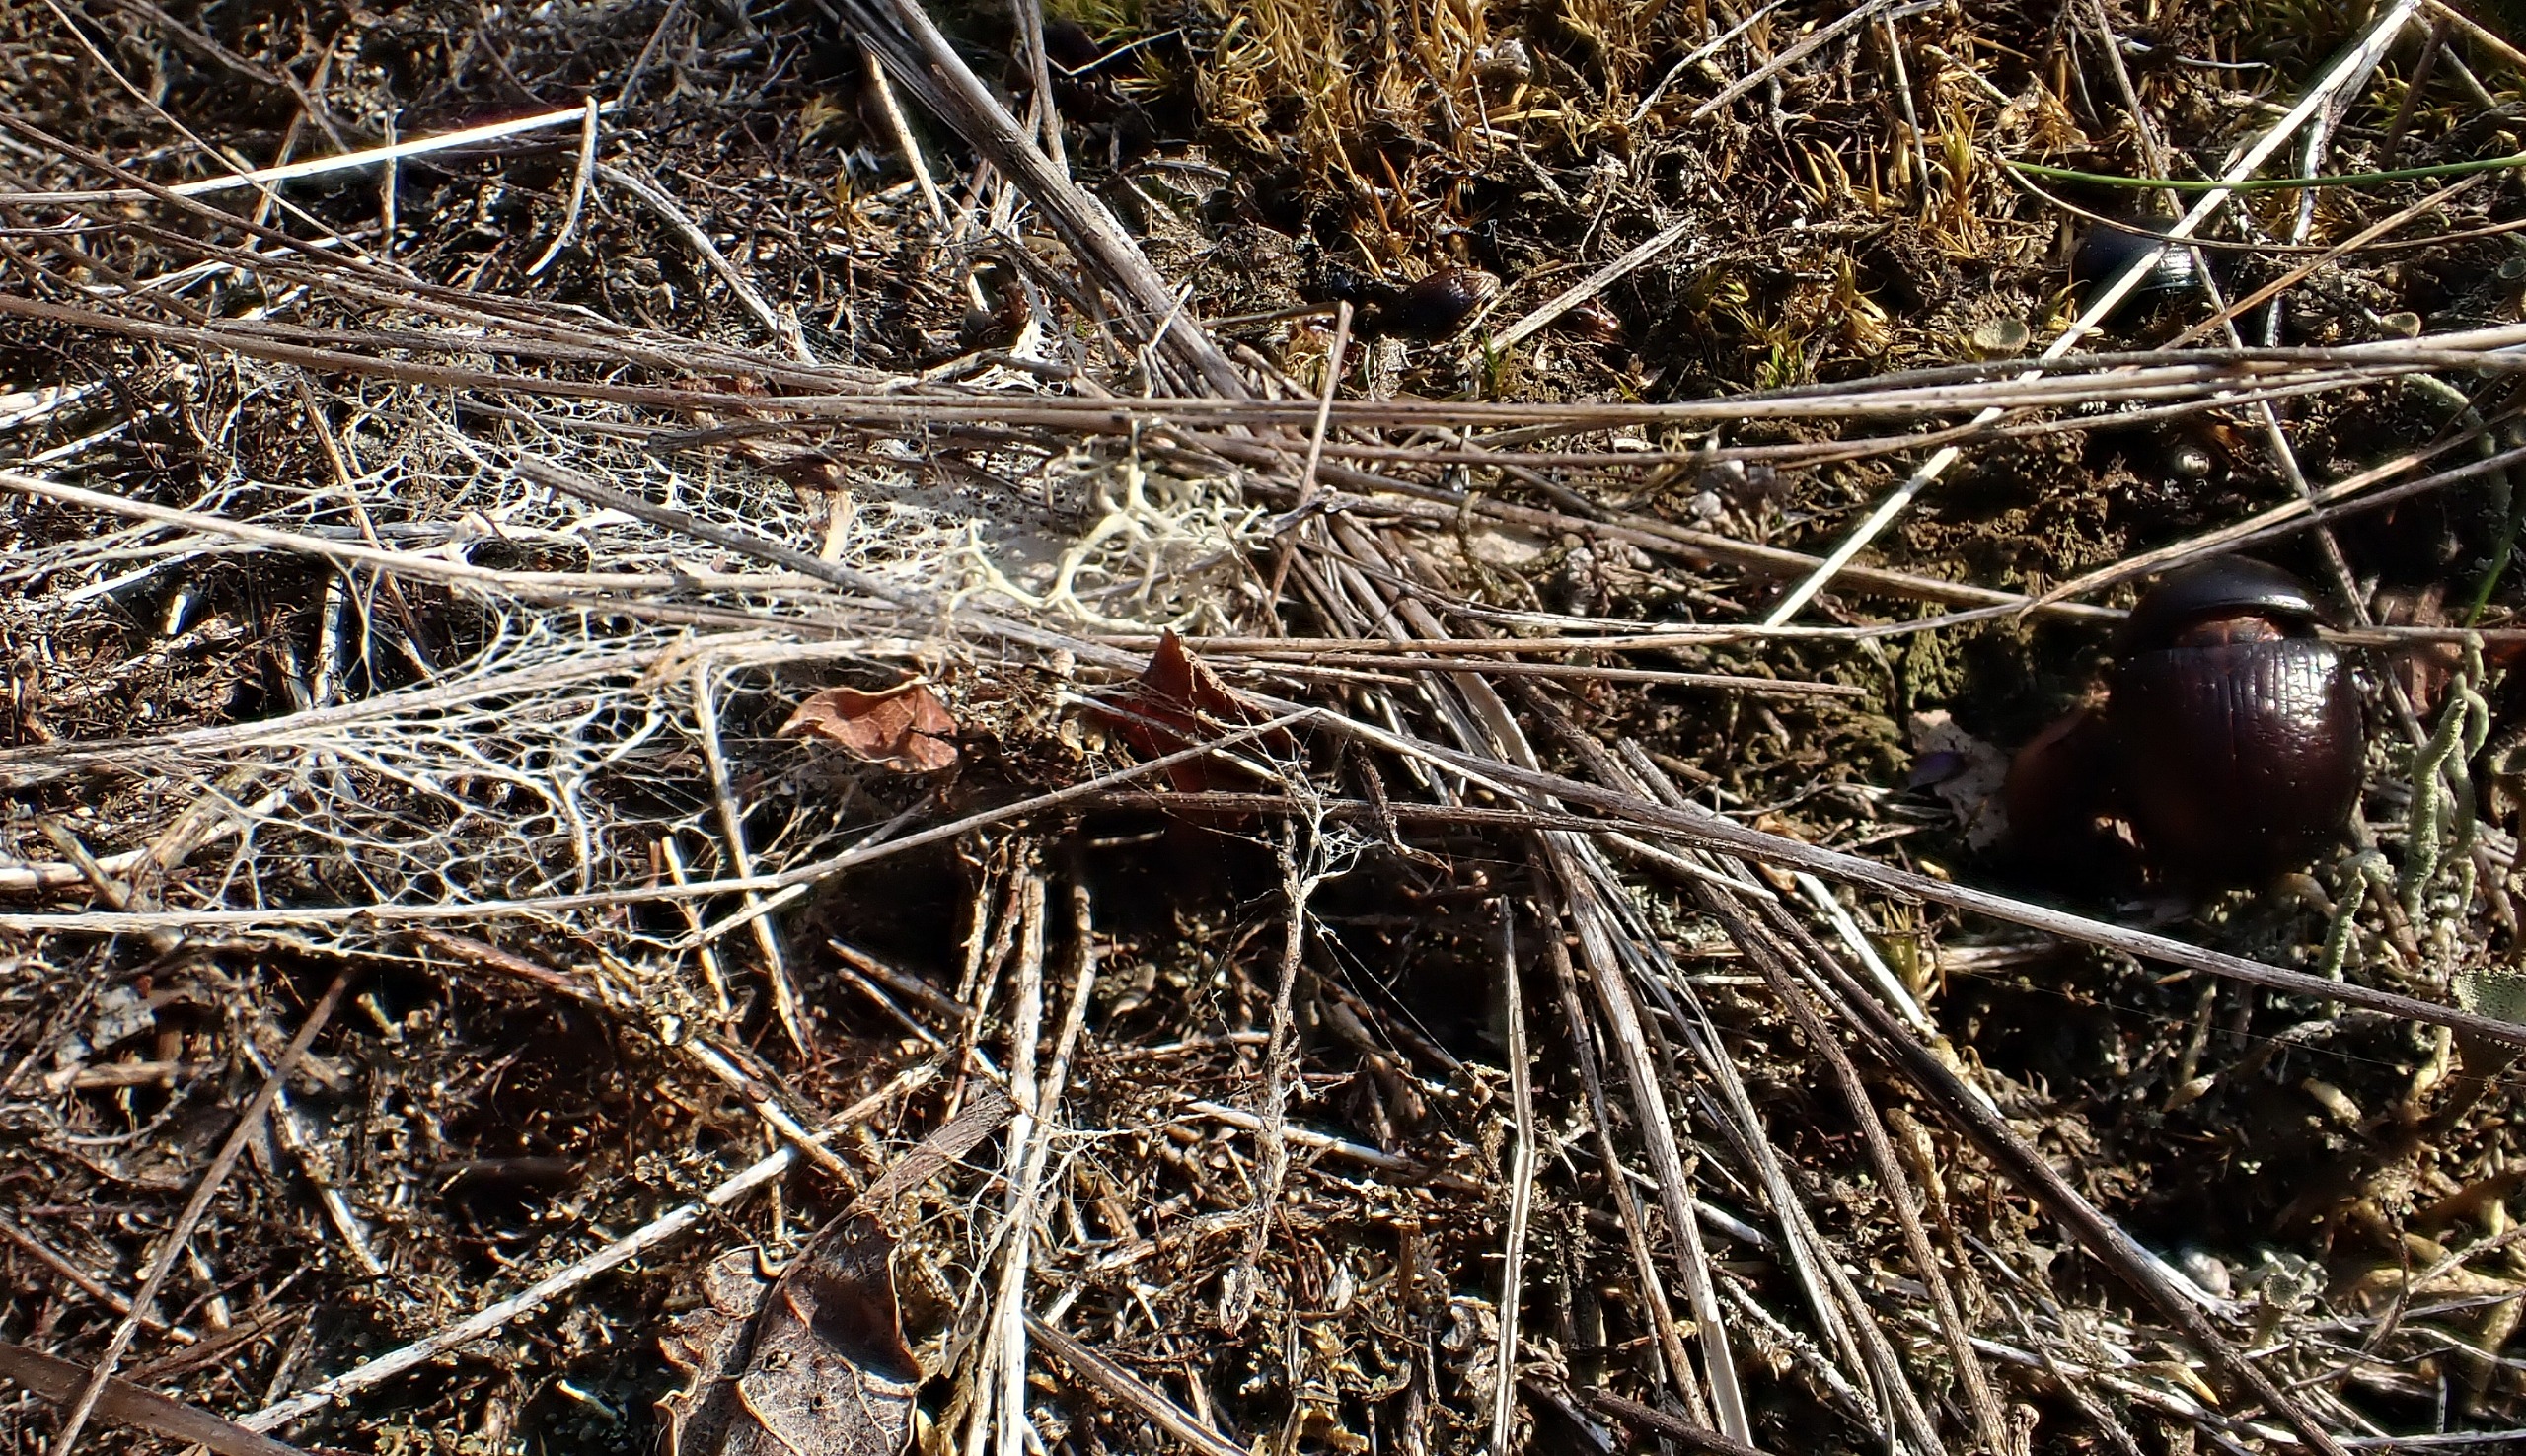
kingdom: Animalia
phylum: Arthropoda
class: Arachnida
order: Araneae
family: Eresidae
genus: Eresus
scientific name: Eresus sandaliatus
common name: Mariehøneedderkop
